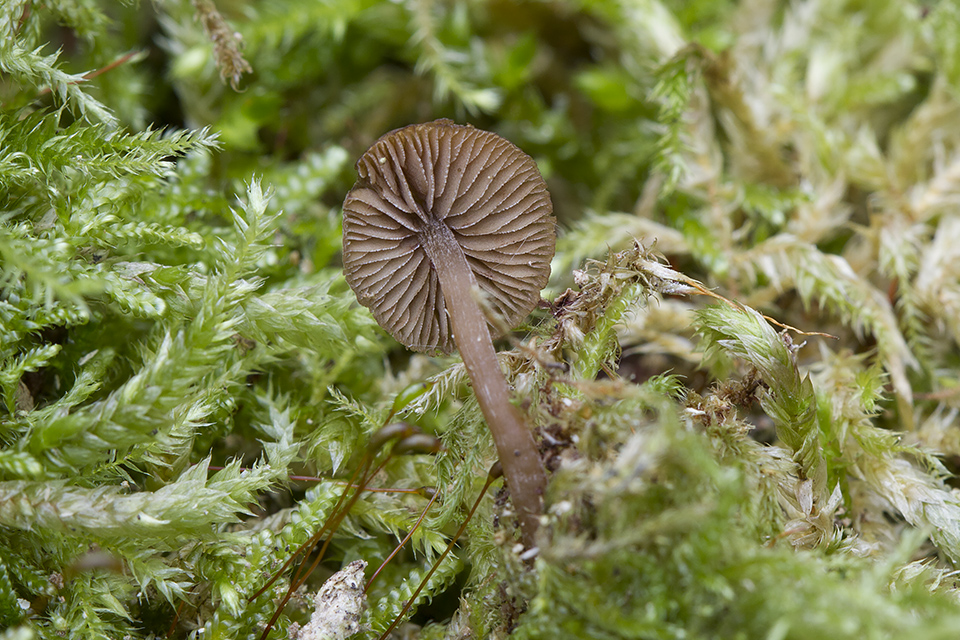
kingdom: Fungi
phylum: Basidiomycota
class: Agaricomycetes
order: Agaricales
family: Crepidotaceae
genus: Simocybe
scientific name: Simocybe centunculus
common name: enlig skyggehat
